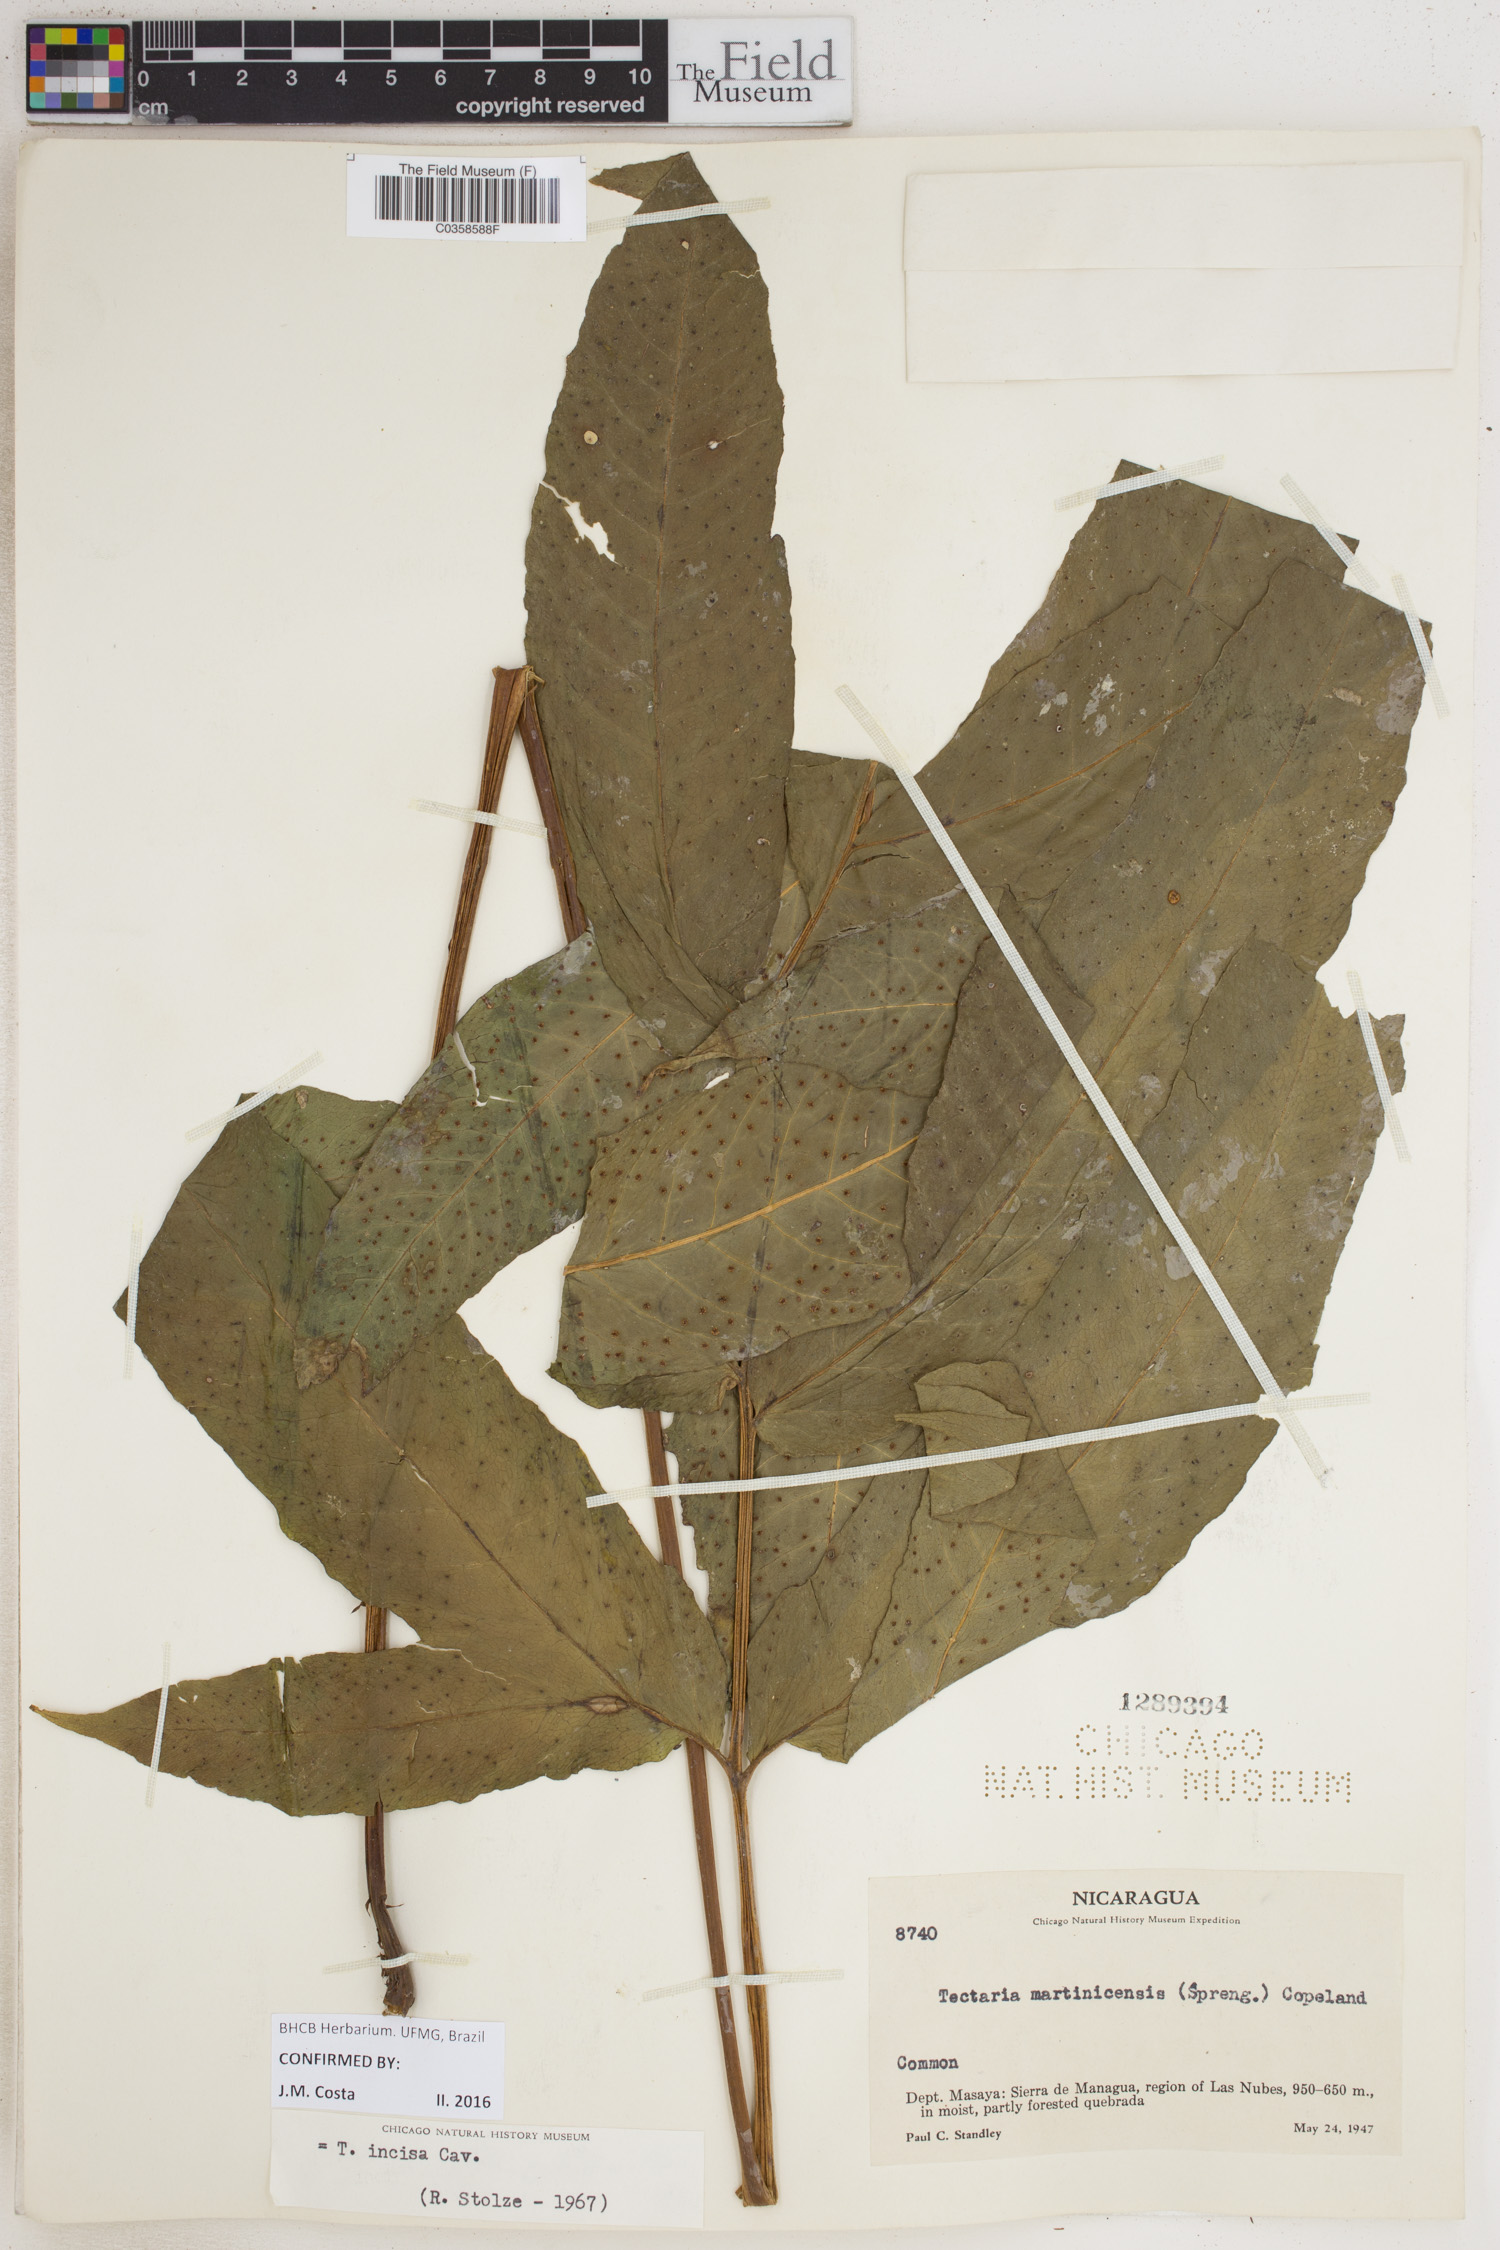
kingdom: Plantae
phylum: Tracheophyta
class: Polypodiopsida
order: Polypodiales
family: Tectariaceae
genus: Tectaria
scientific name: Tectaria incisa
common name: Incised halberd fern
